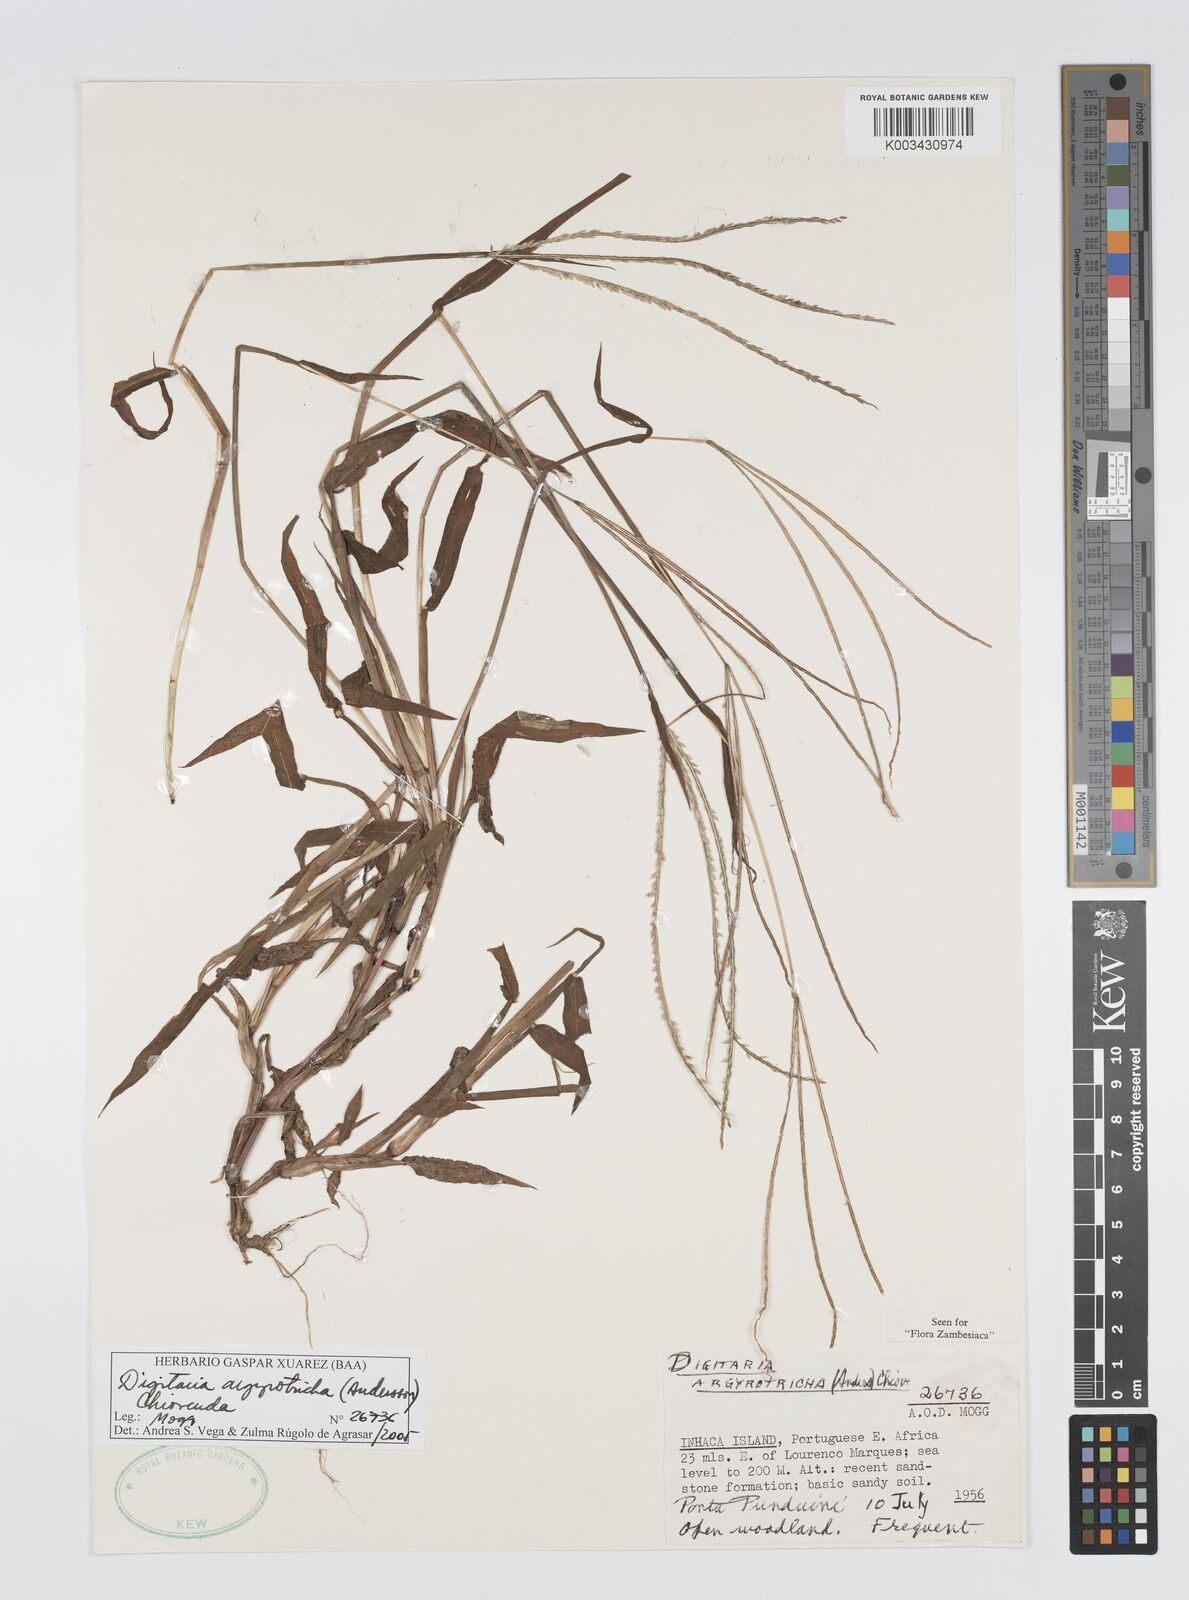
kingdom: Plantae
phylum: Tracheophyta
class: Liliopsida
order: Poales
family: Poaceae
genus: Digitaria
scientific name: Digitaria argyrotricha
